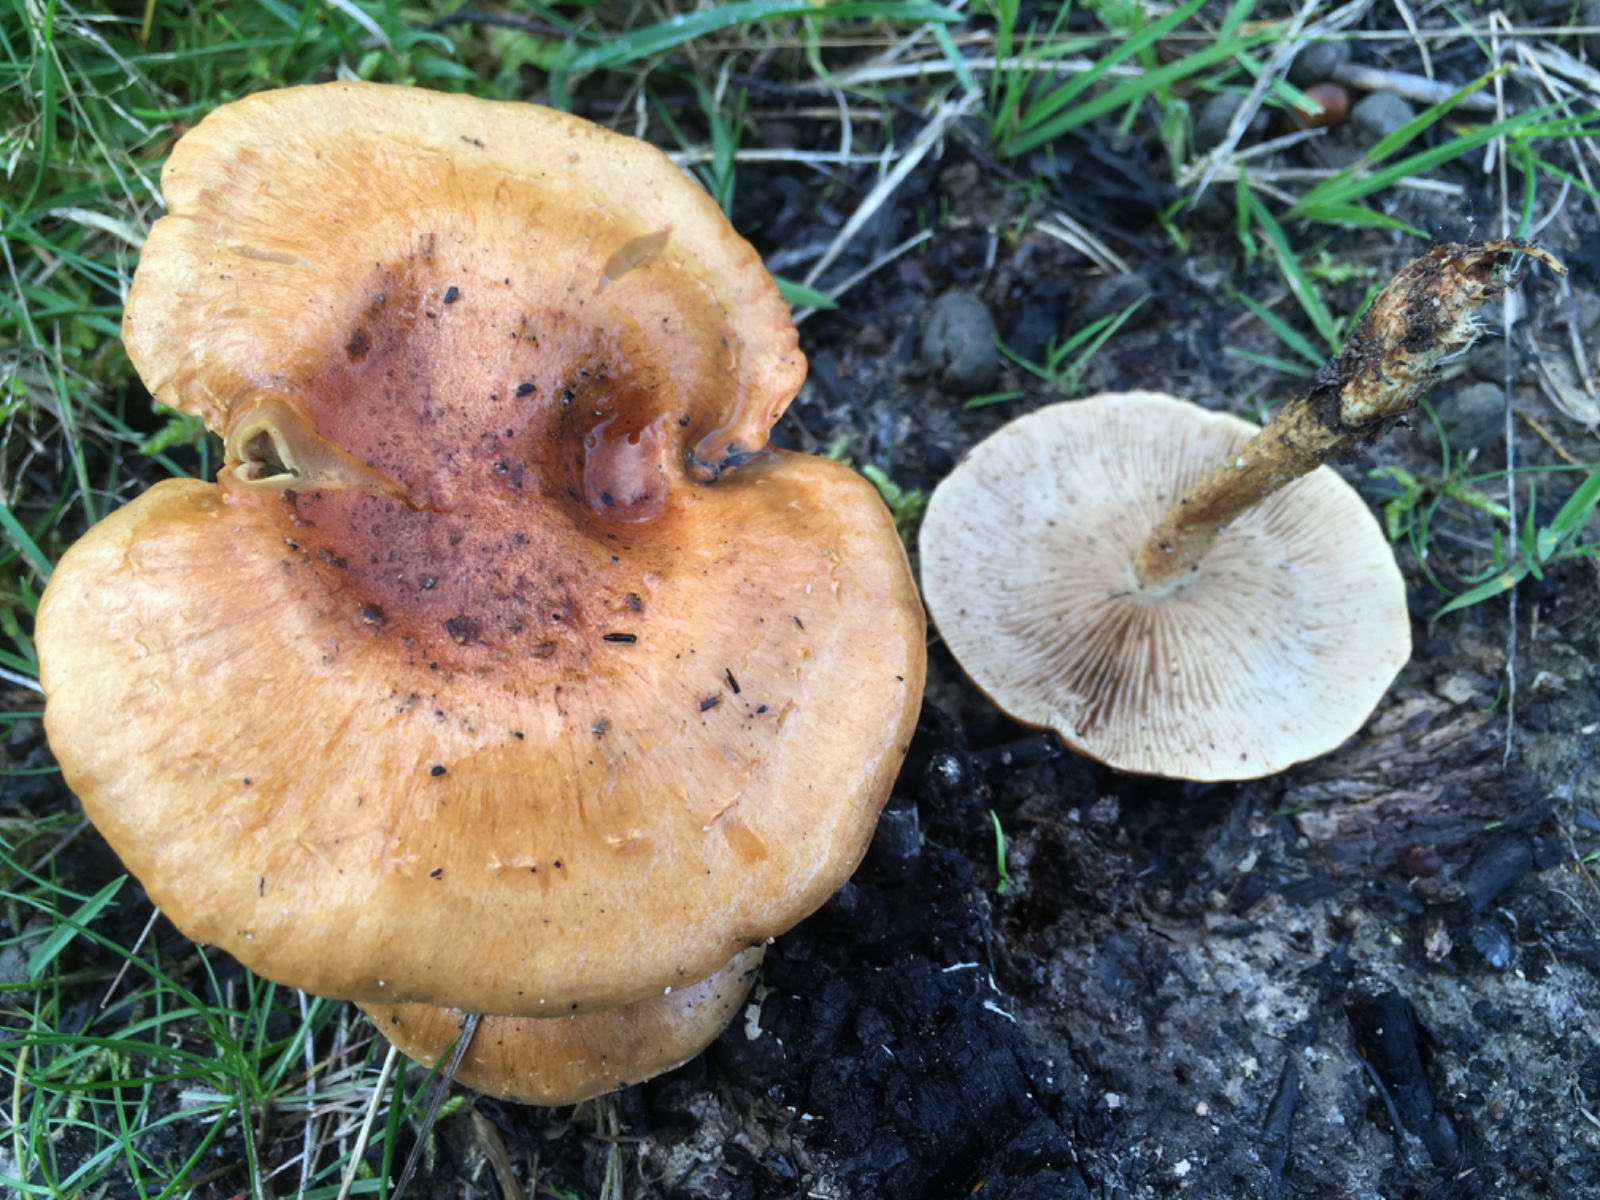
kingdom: Fungi
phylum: Basidiomycota
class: Agaricomycetes
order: Agaricales
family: Strophariaceae
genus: Pholiota
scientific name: Pholiota carbonaria
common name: kul-skælhat
